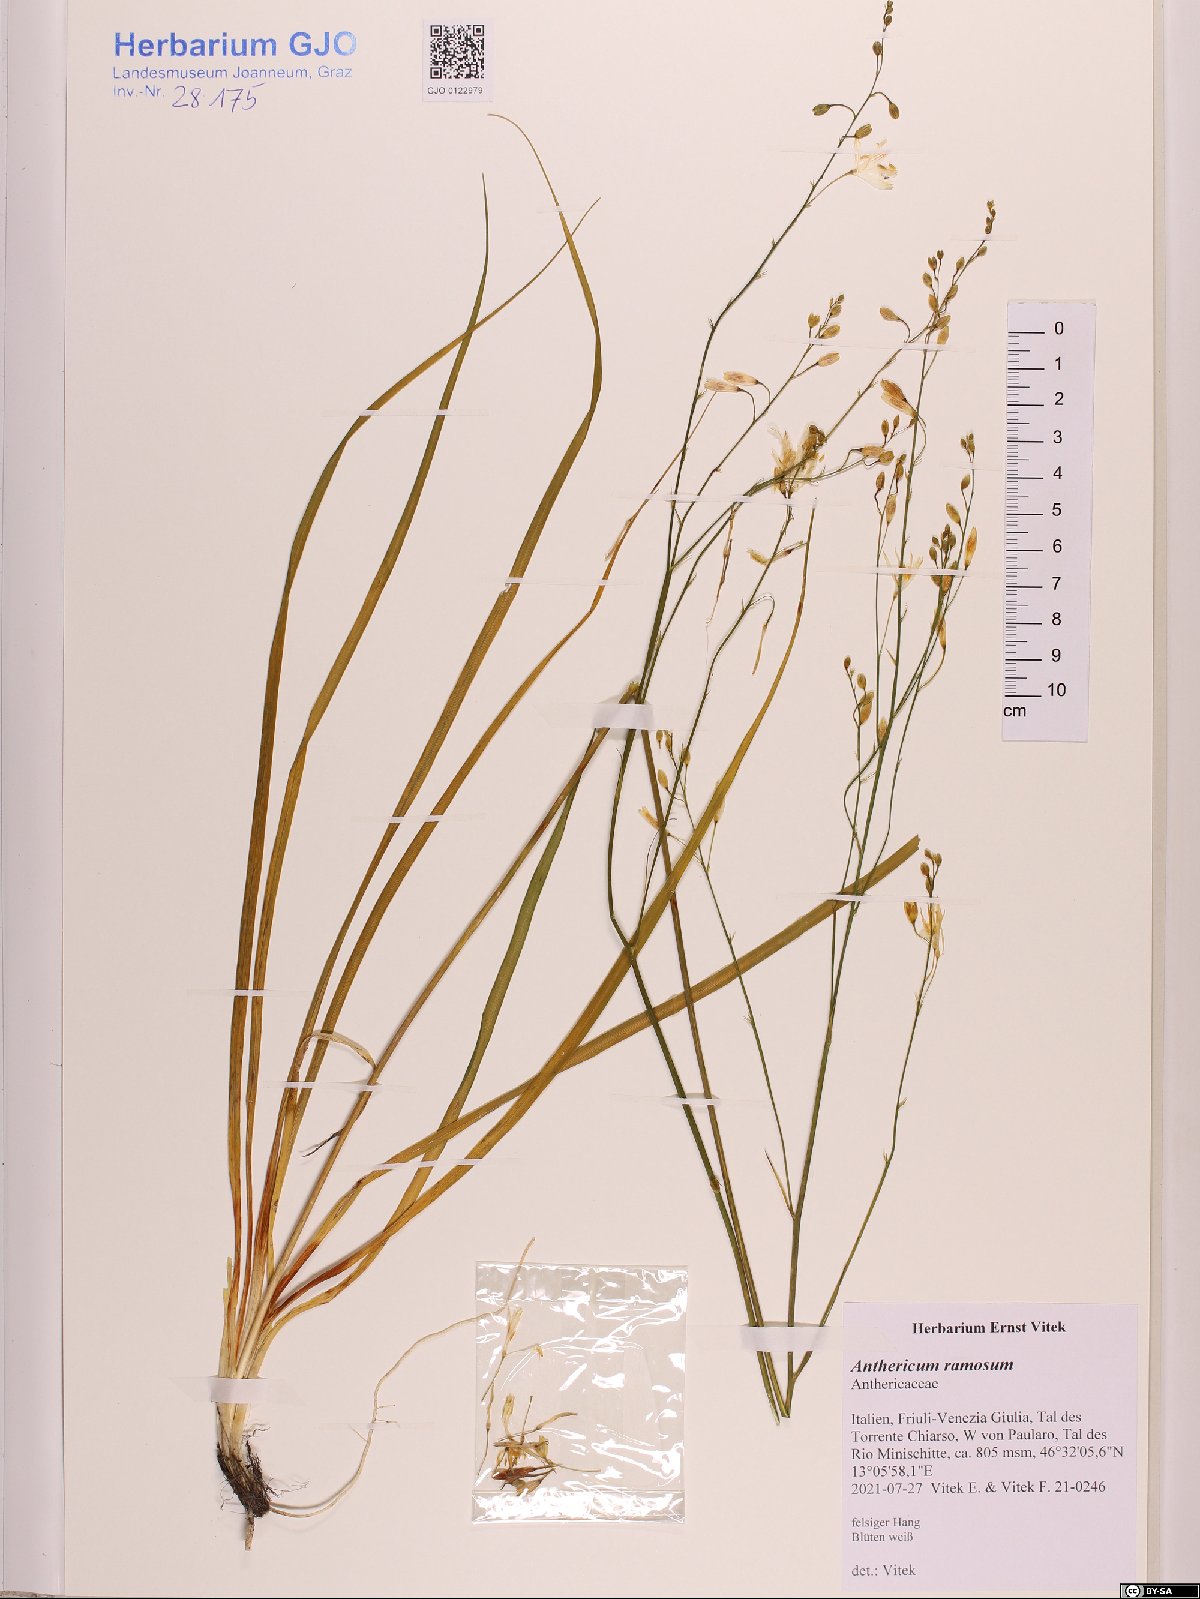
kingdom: Plantae
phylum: Tracheophyta
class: Liliopsida
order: Asparagales
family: Asparagaceae
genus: Anthericum
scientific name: Anthericum ramosum
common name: Branched st. bernard's-lily
